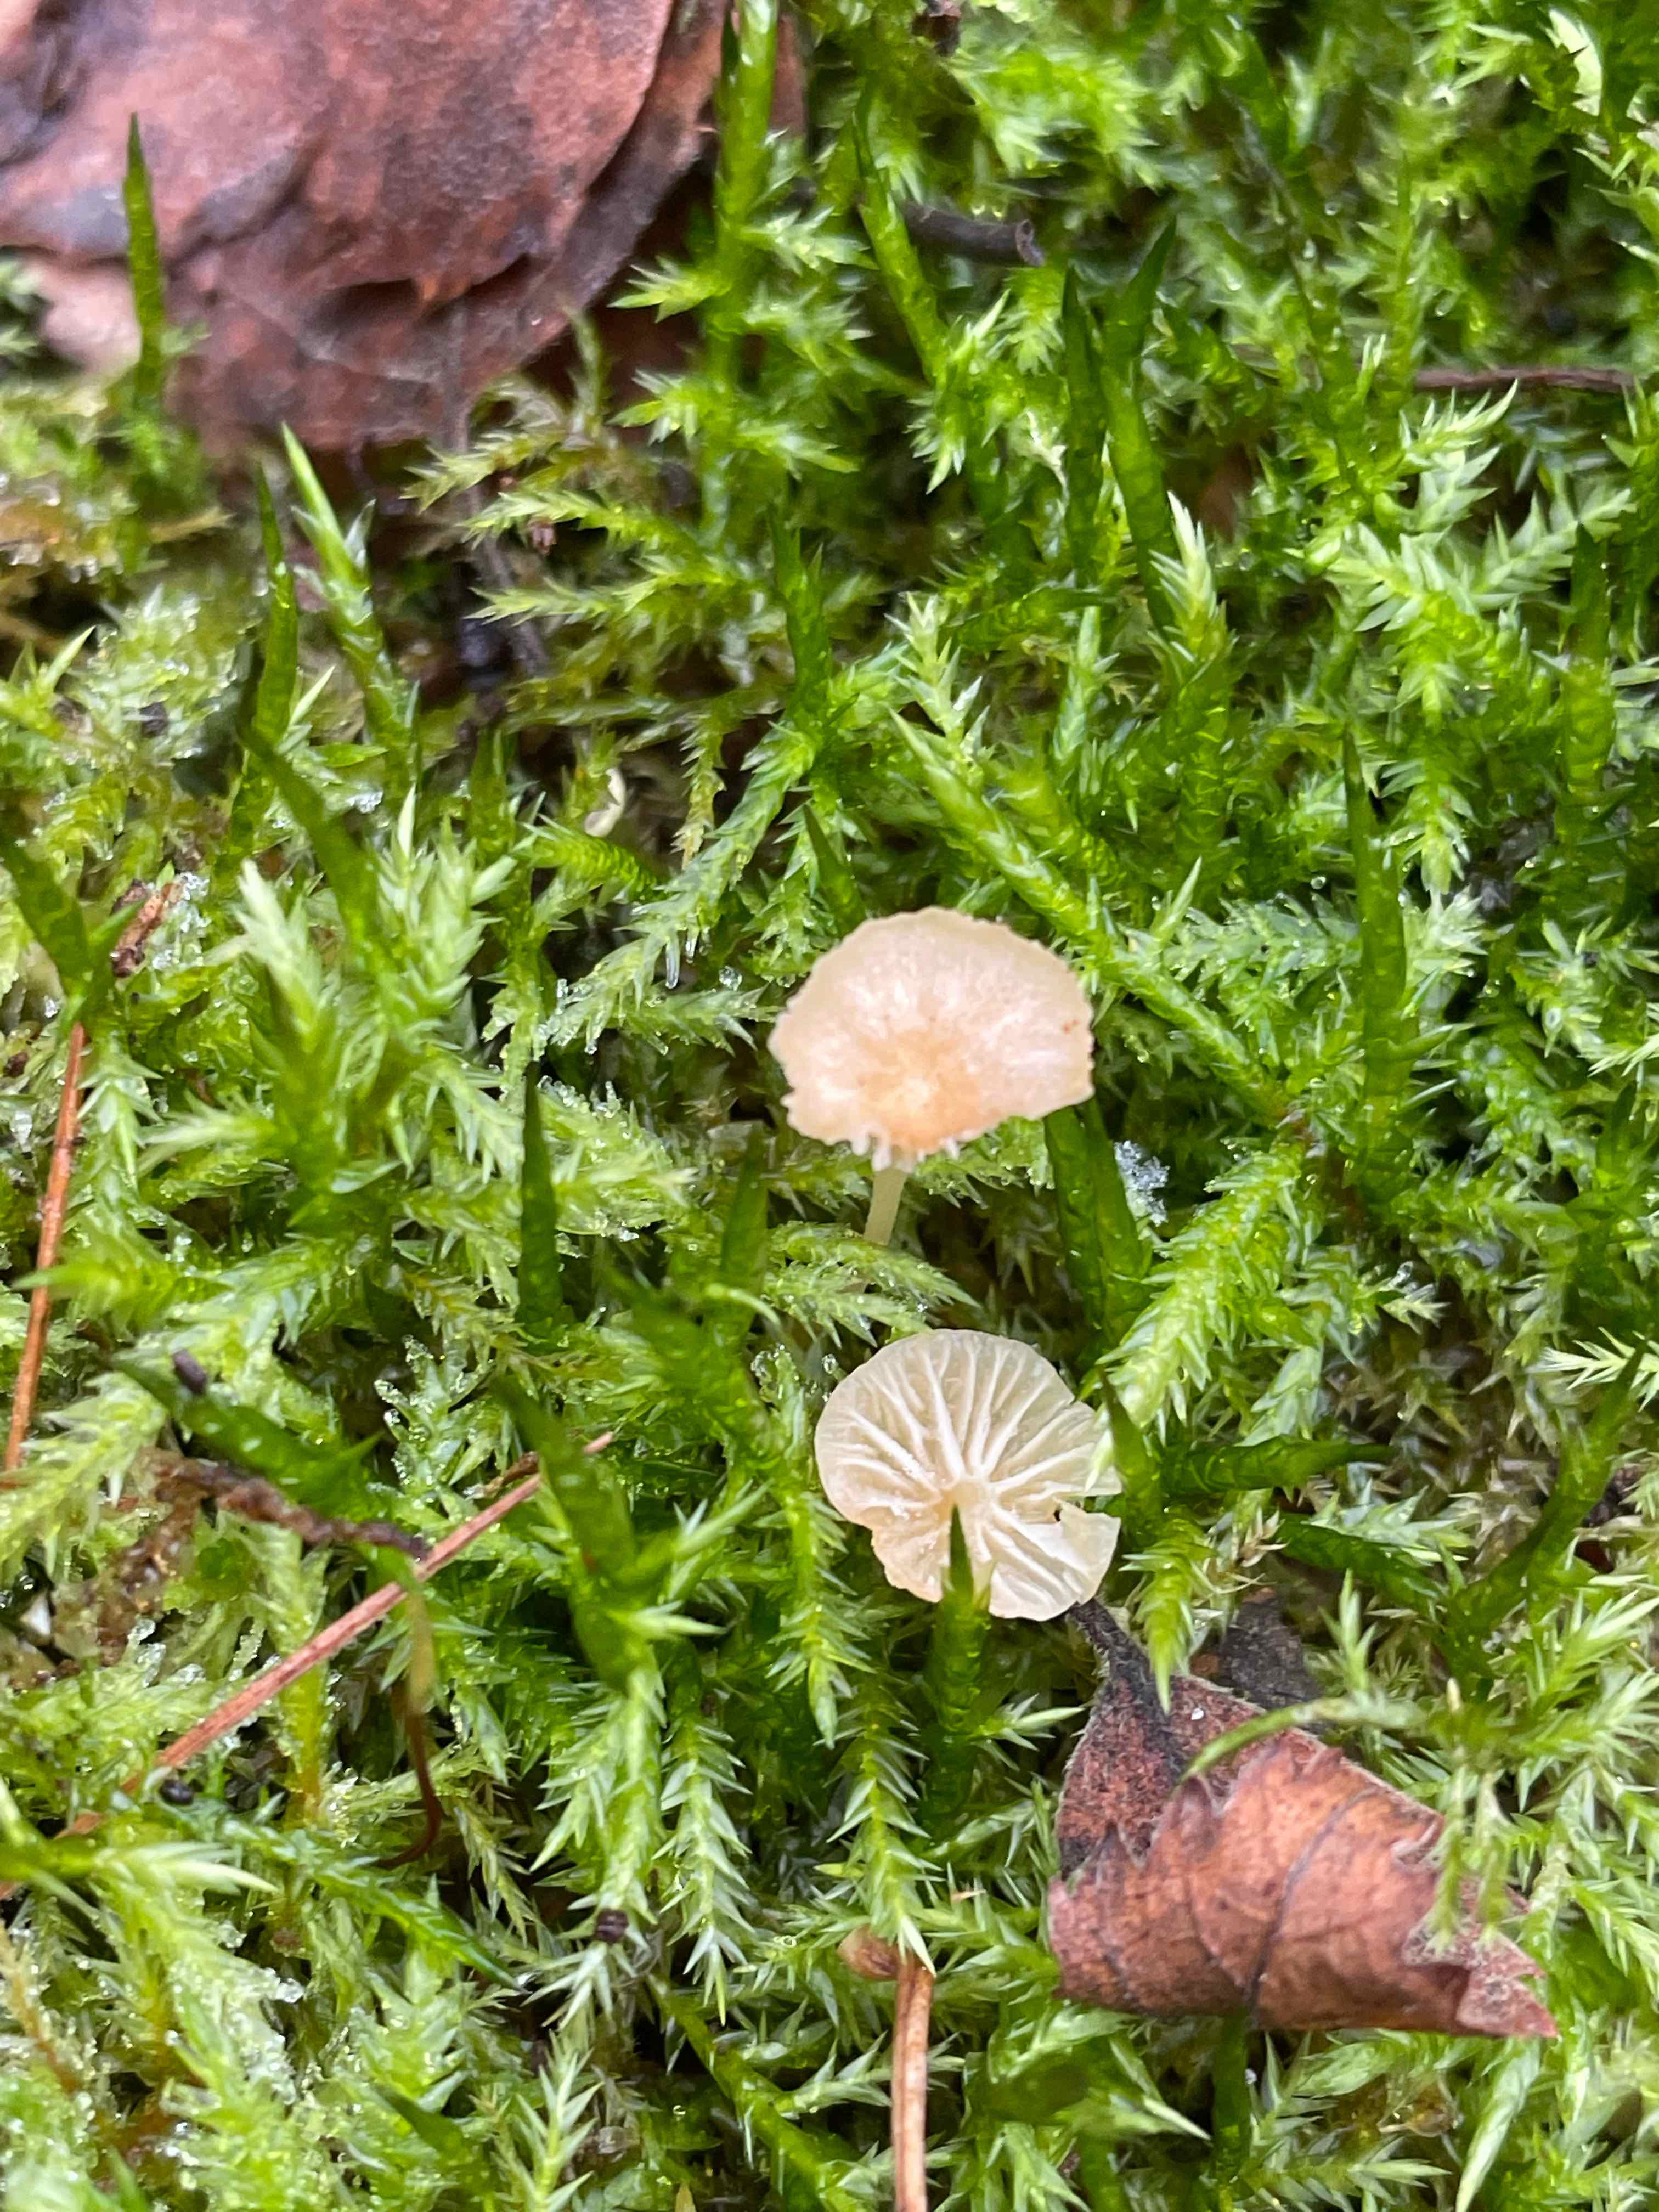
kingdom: Fungi
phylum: Basidiomycota
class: Agaricomycetes
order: Hymenochaetales
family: Rickenellaceae
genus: Rickenella
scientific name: Rickenella fibula
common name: orange mosnavlehat
